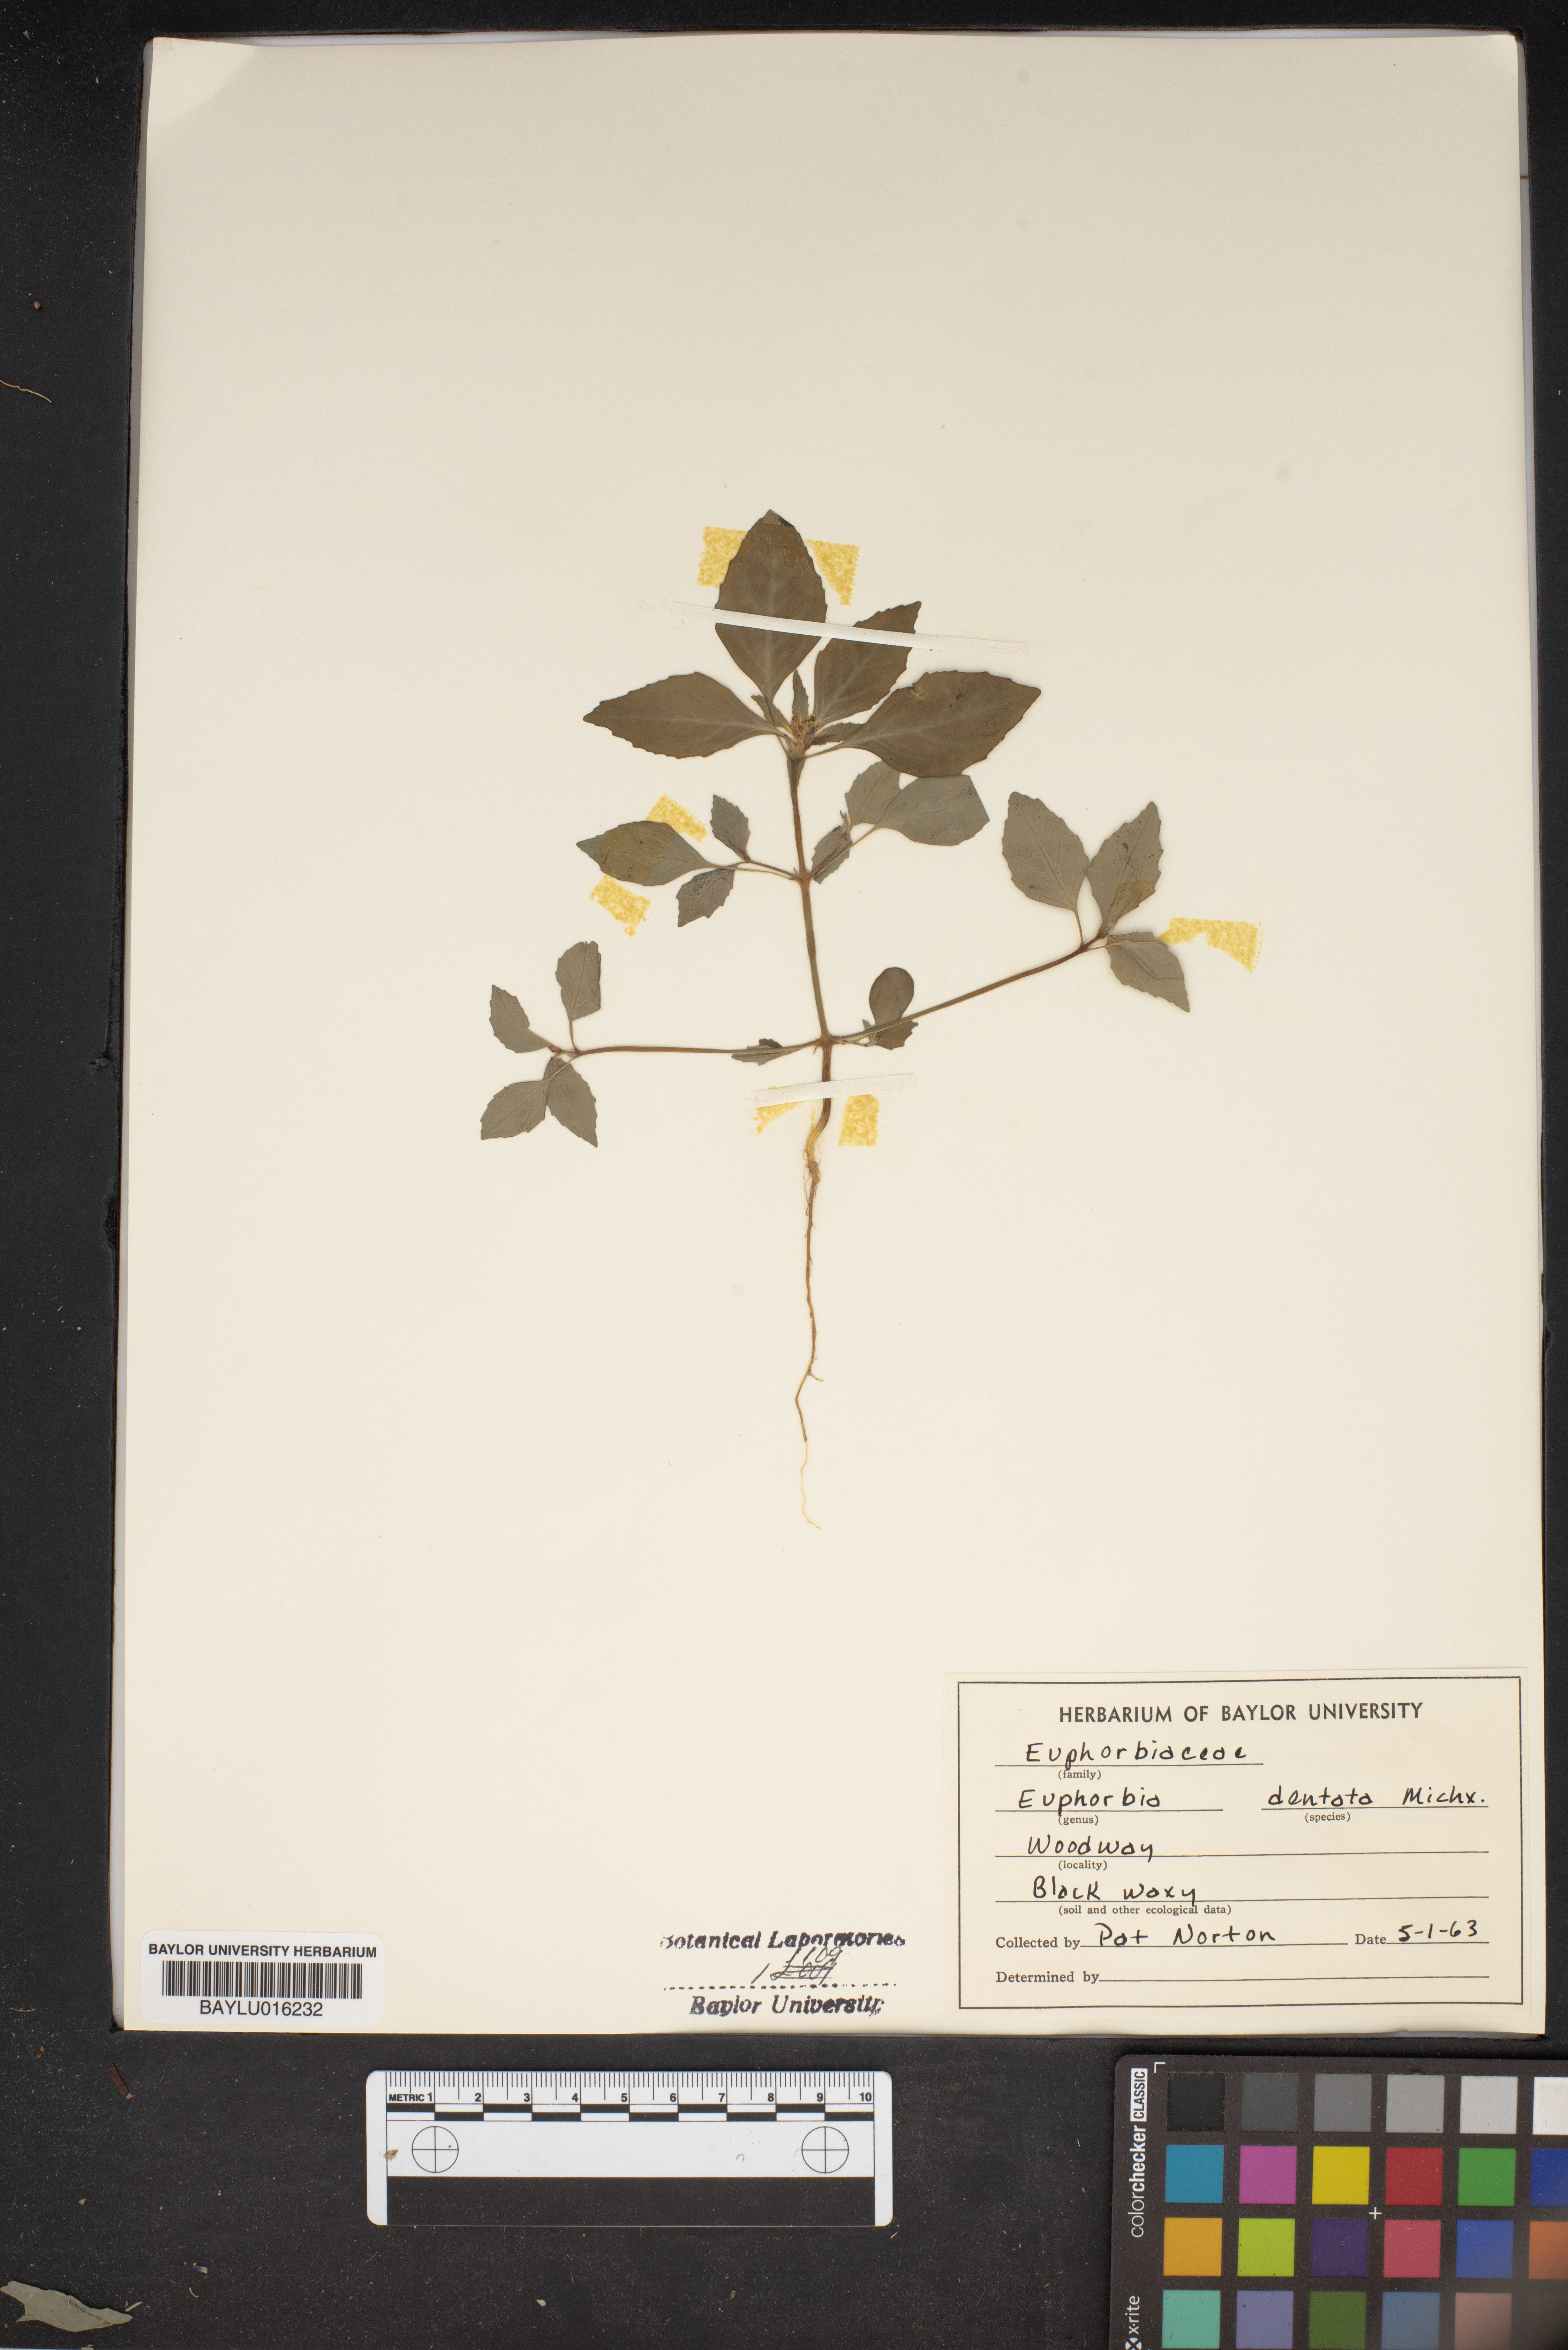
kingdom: Plantae
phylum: Tracheophyta
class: Magnoliopsida
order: Malpighiales
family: Euphorbiaceae
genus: Euphorbia
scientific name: Euphorbia dentata
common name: Dentate spurge
